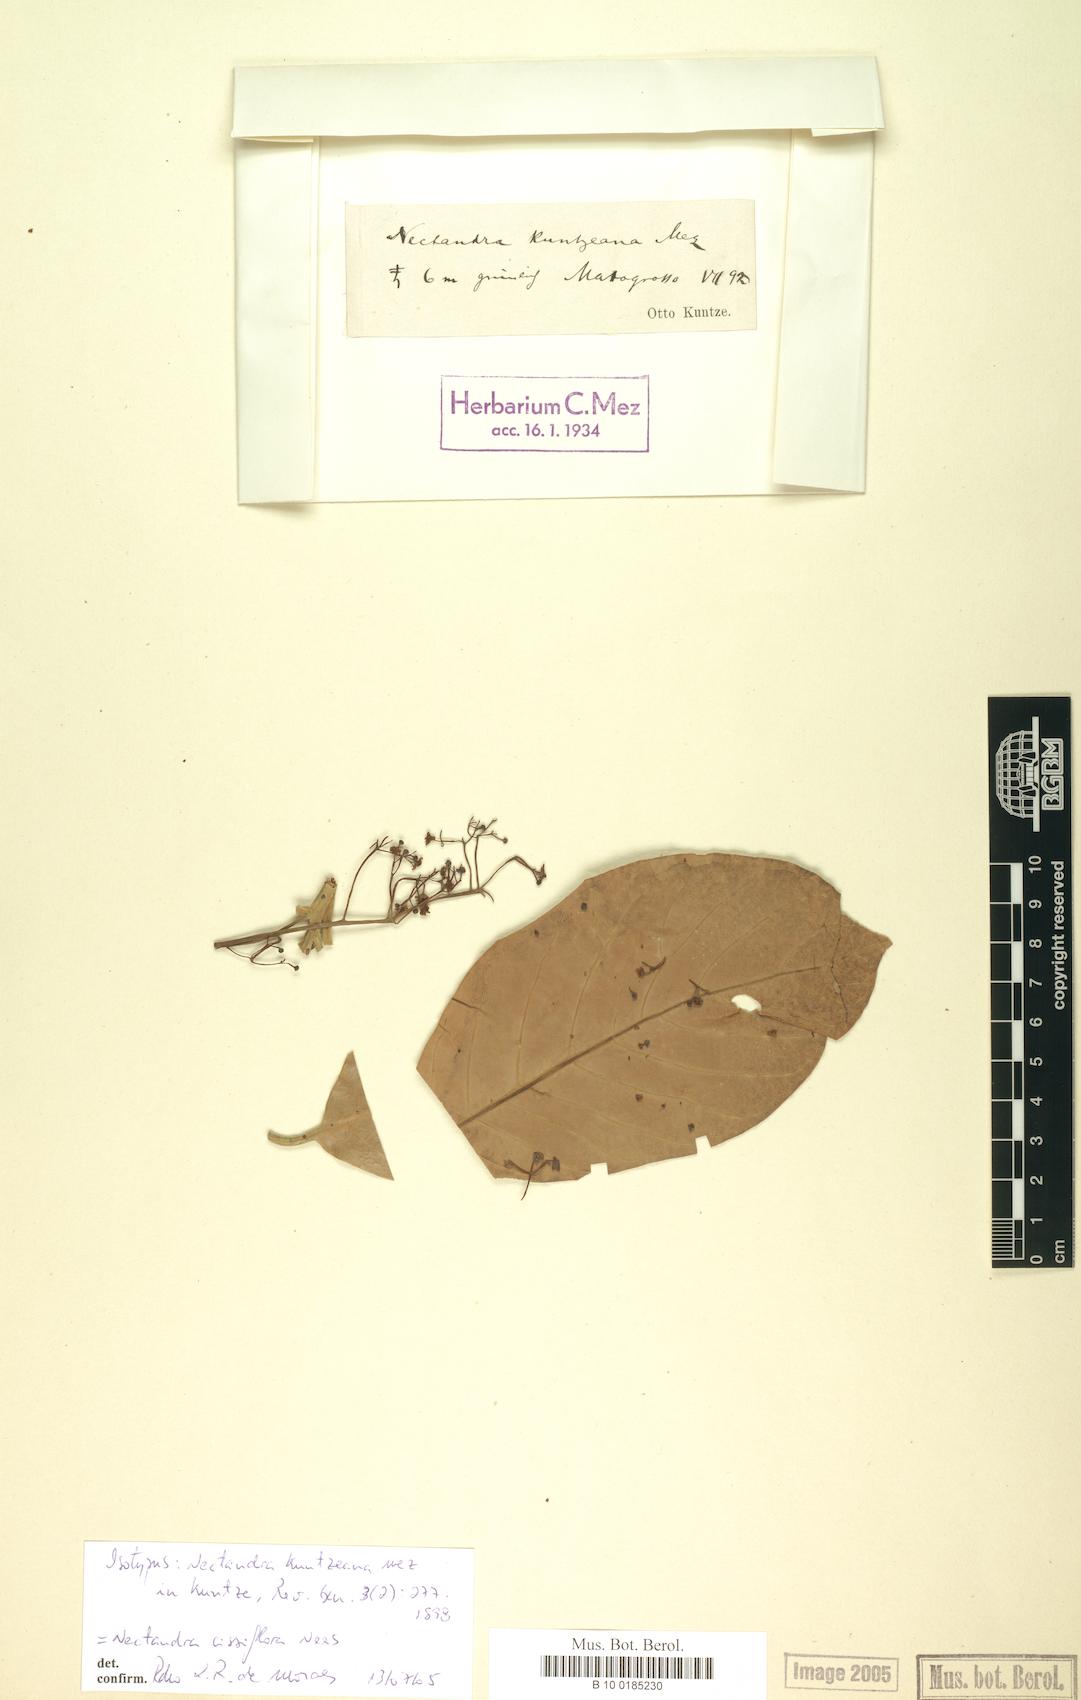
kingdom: Plantae
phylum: Tracheophyta
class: Magnoliopsida
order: Laurales
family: Lauraceae
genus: Nectandra
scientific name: Nectandra cissiflora
